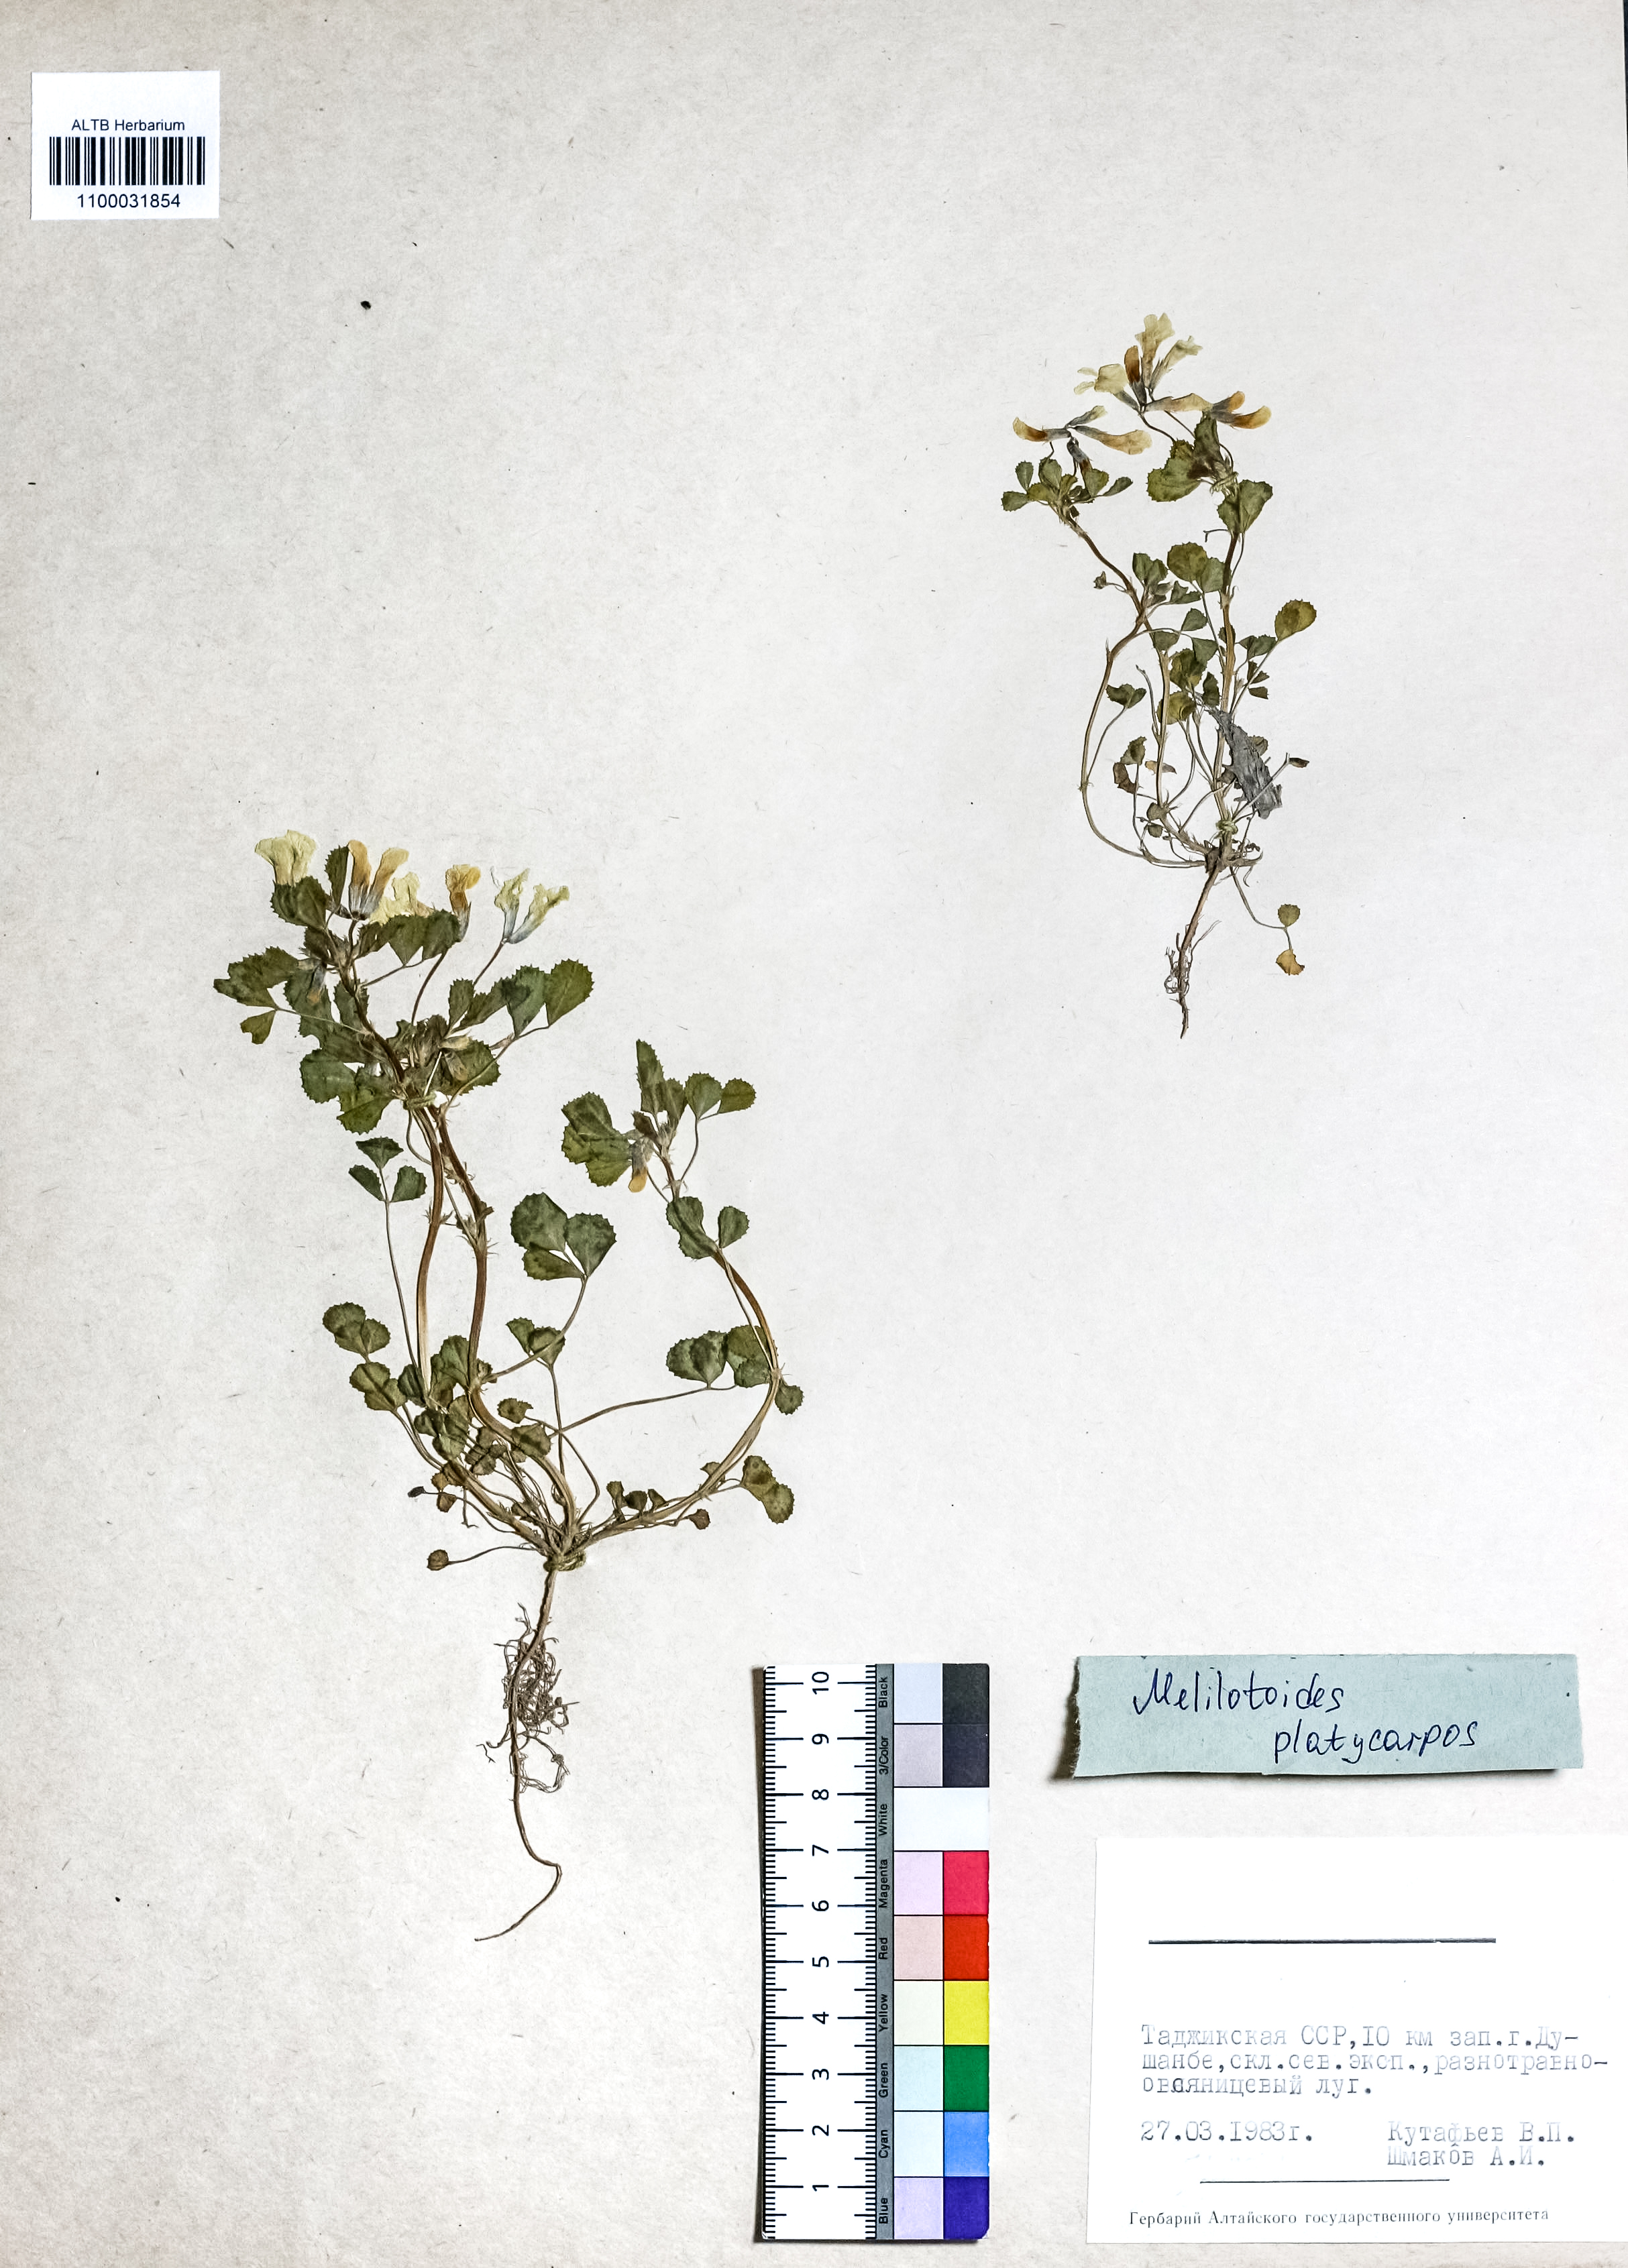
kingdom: Plantae
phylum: Tracheophyta
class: Magnoliopsida
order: Fabales
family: Fabaceae
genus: Medicago
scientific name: Medicago platycarpos
